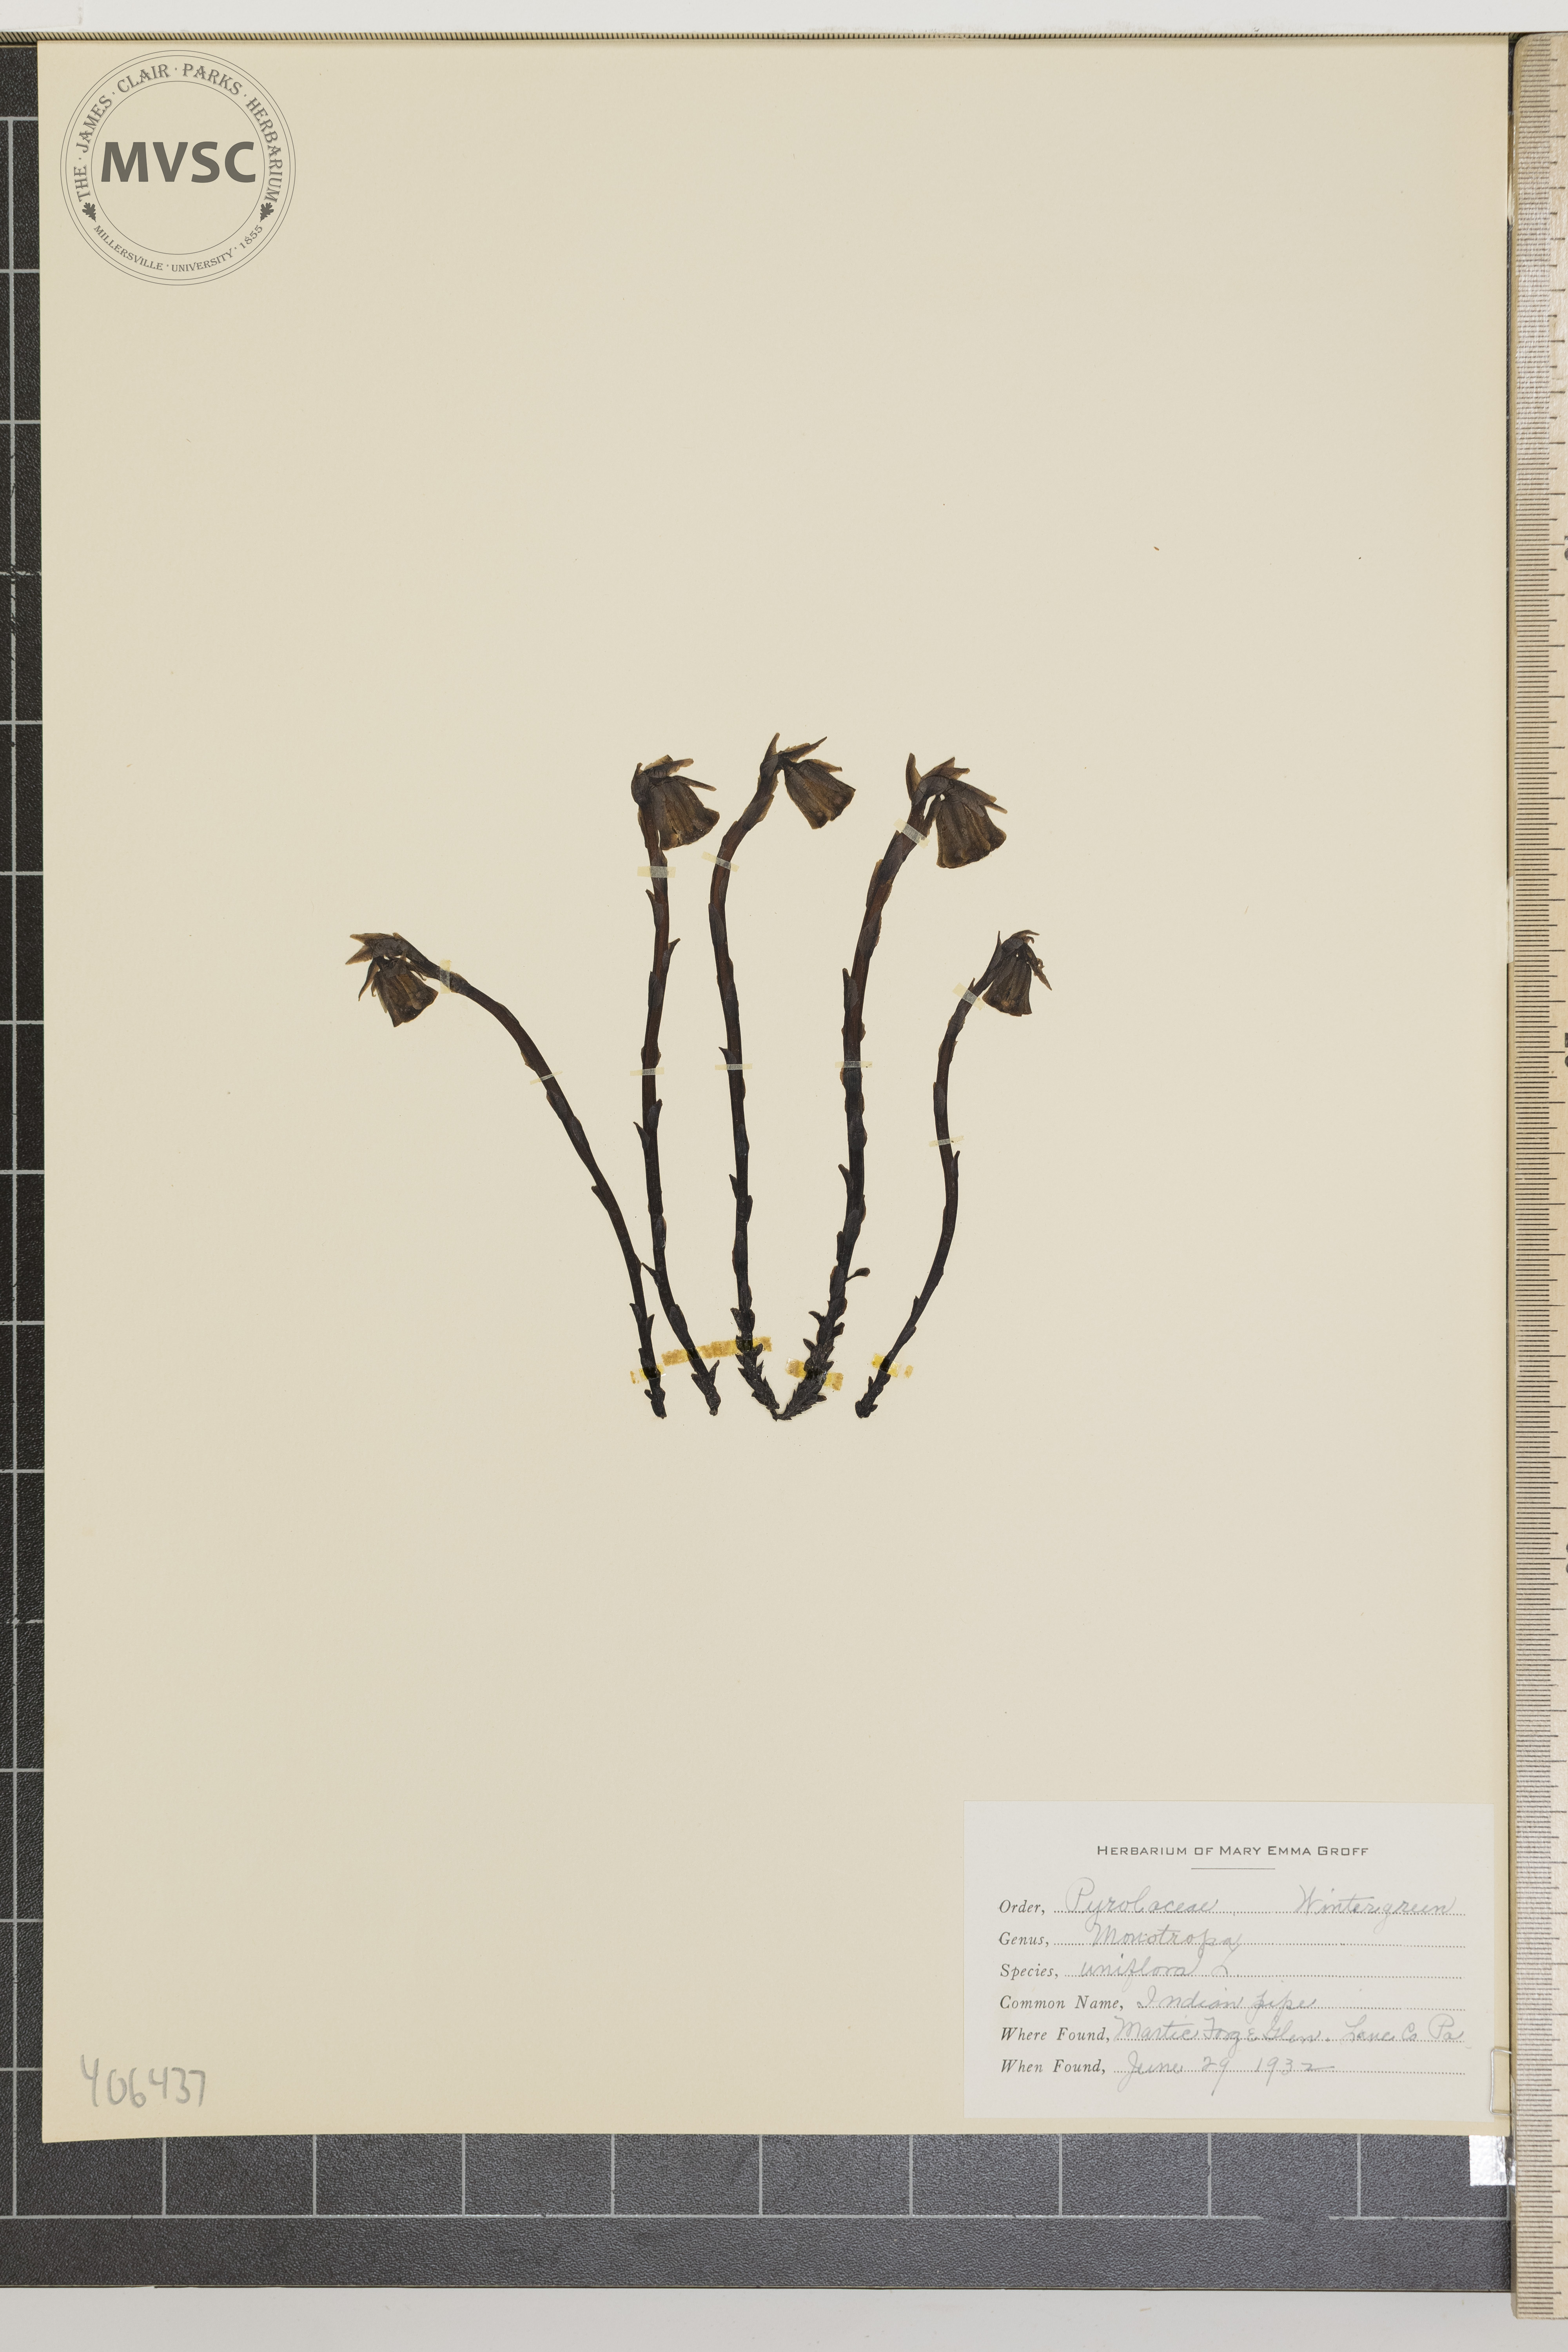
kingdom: Plantae
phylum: Tracheophyta
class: Magnoliopsida
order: Ericales
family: Ericaceae
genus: Monotropa
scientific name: Monotropa uniflora
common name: Indian Pipe
